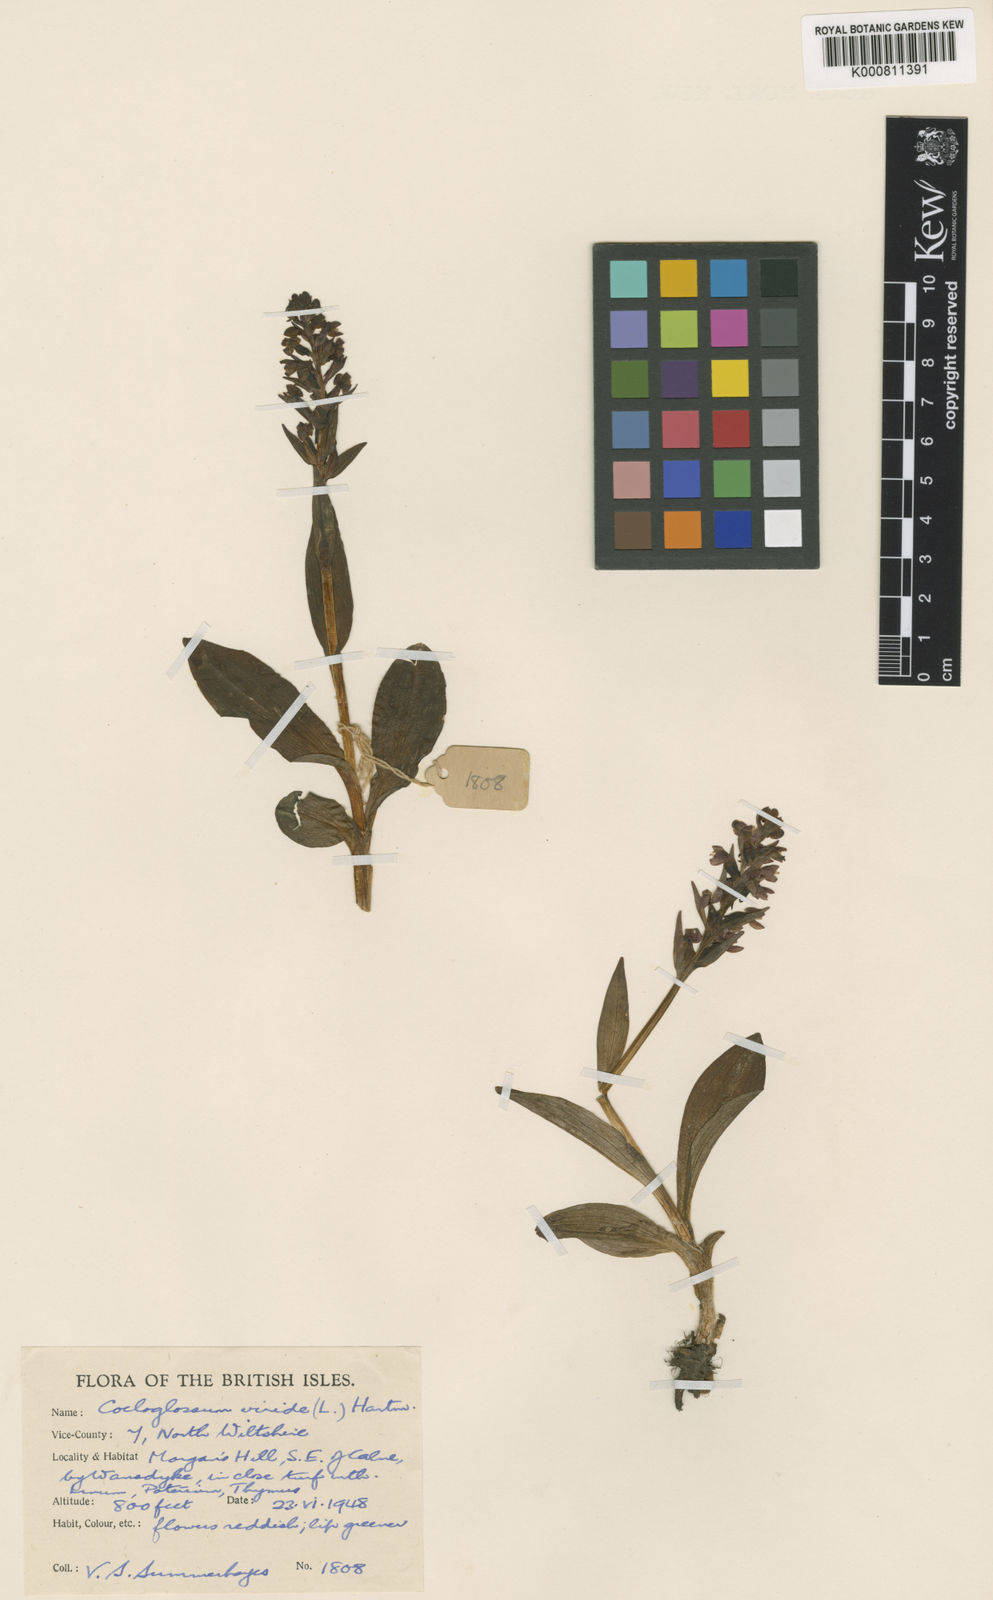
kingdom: Plantae
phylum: Tracheophyta
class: Liliopsida
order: Asparagales
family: Orchidaceae
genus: Dactylorhiza
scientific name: Dactylorhiza viridis
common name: Longbract frog orchid
